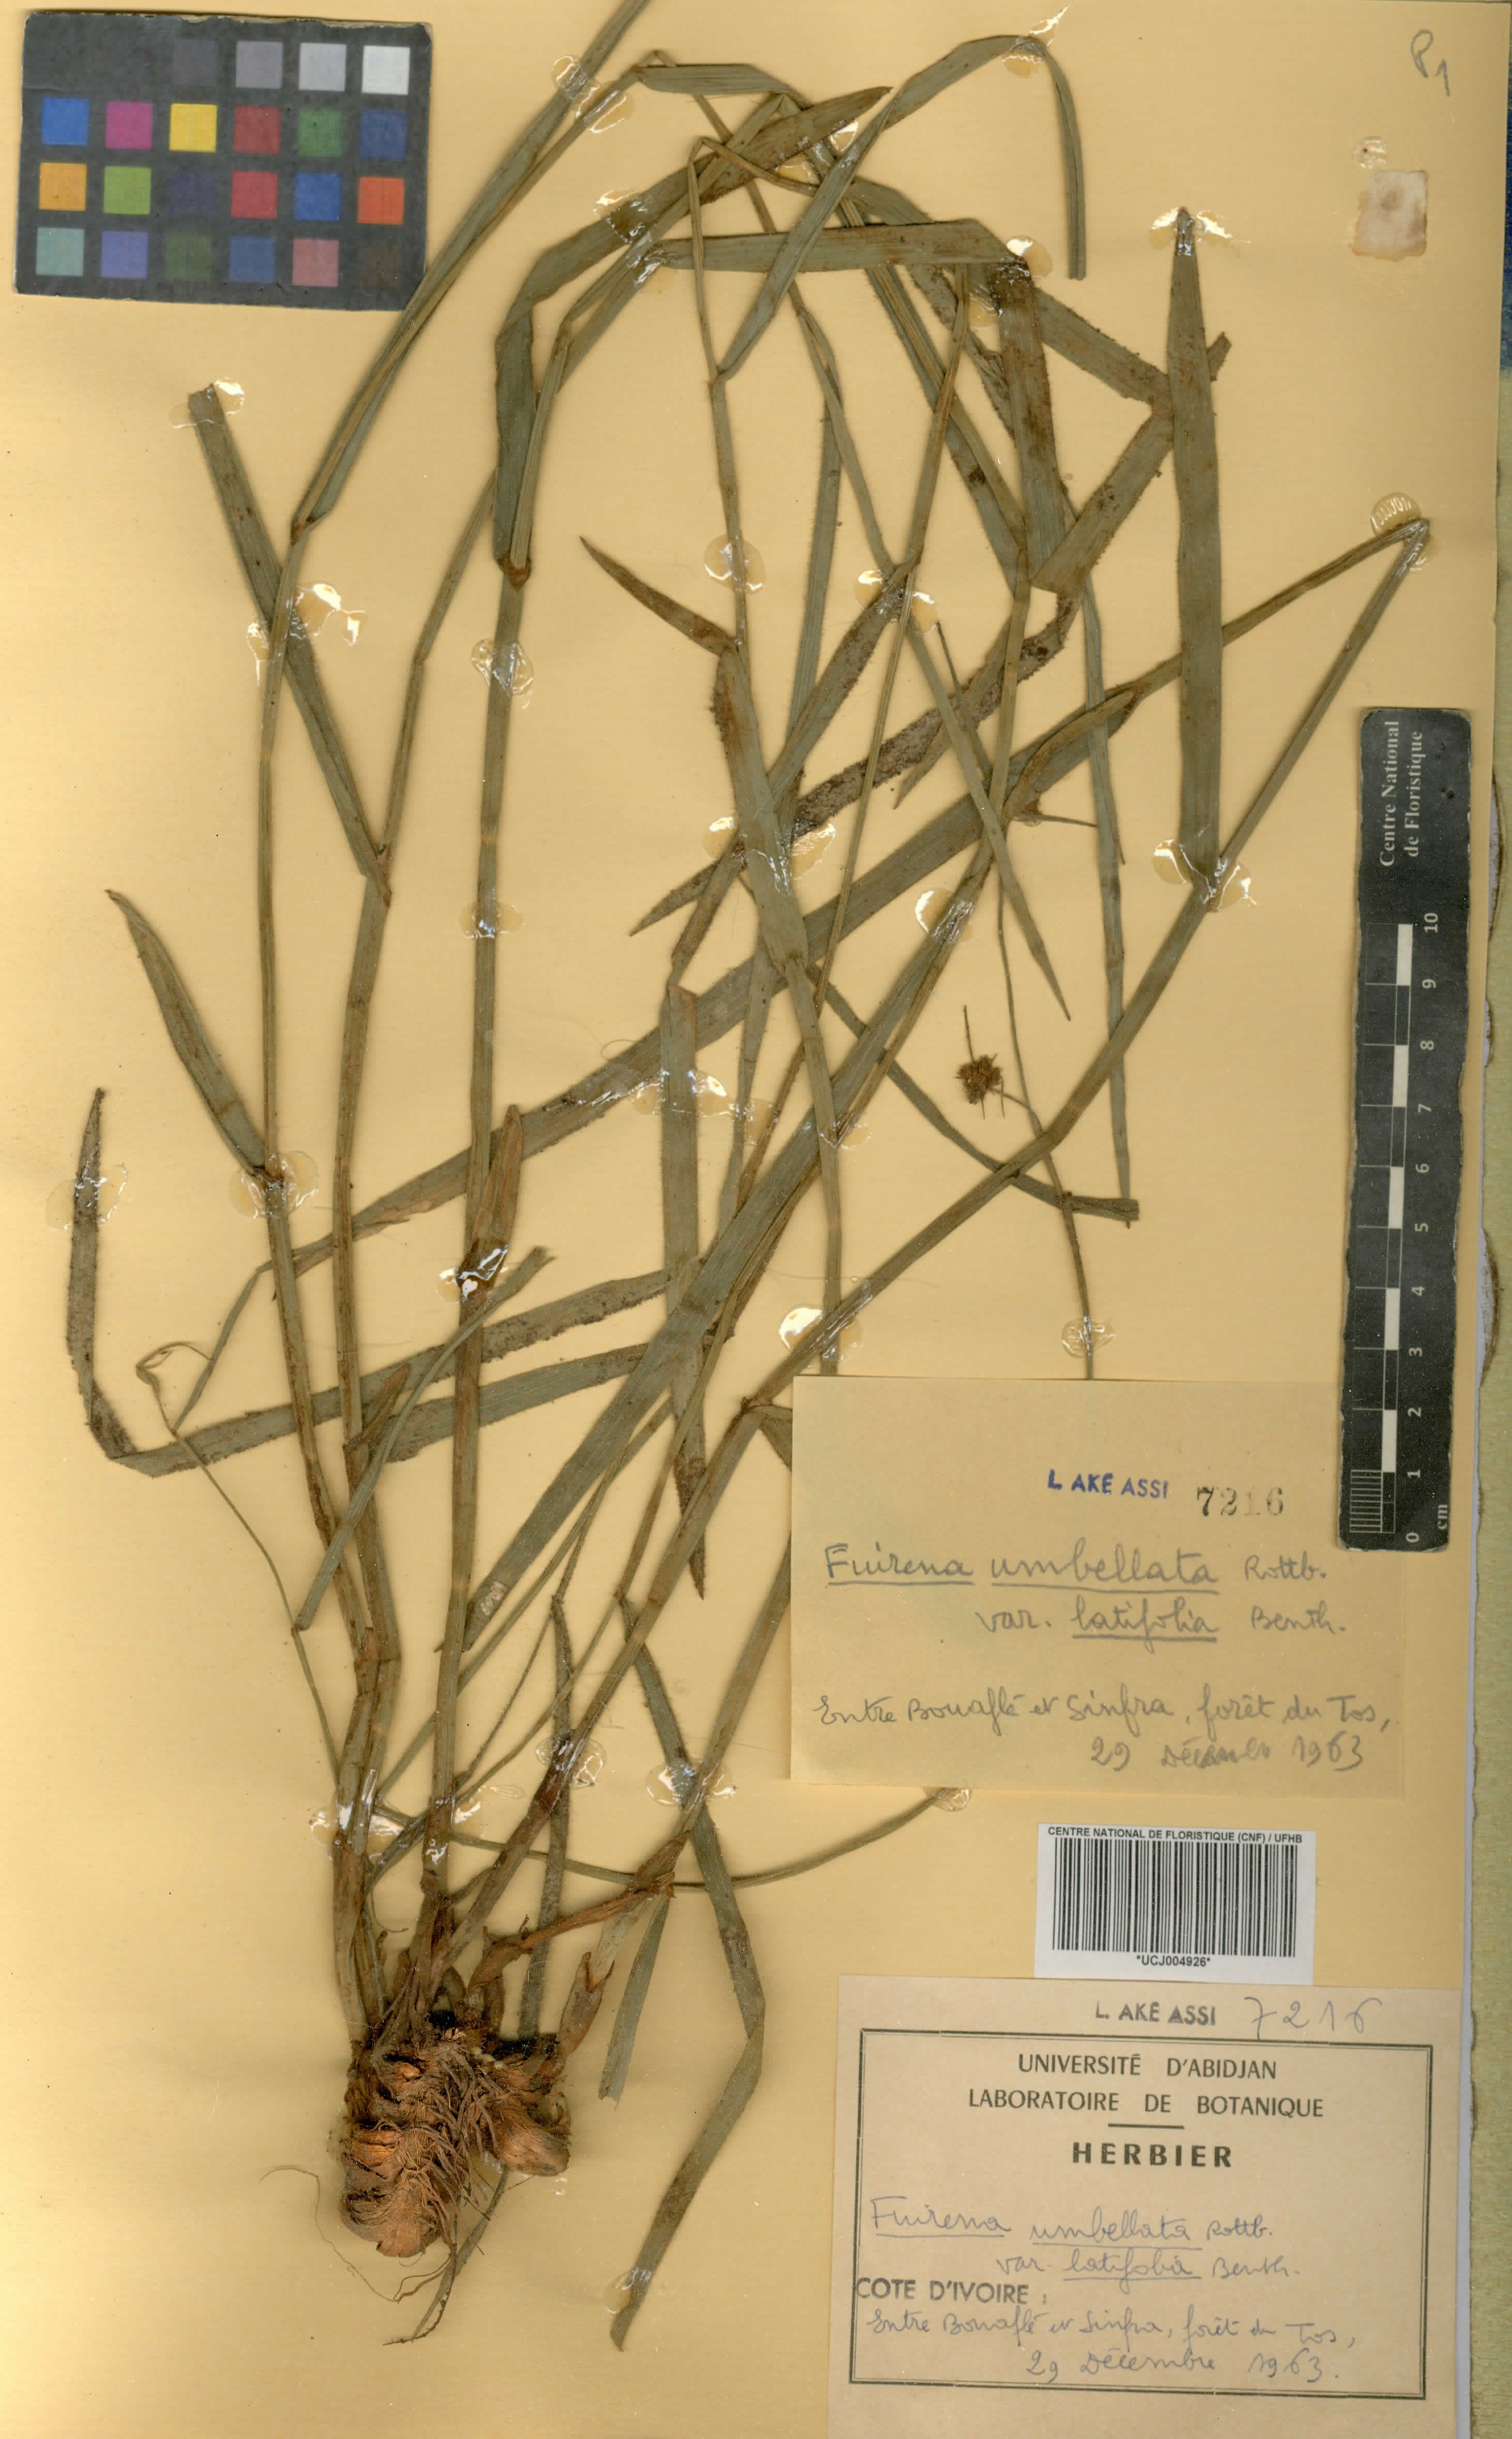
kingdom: Plantae
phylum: Tracheophyta
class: Liliopsida
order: Poales
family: Cyperaceae
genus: Fuirena
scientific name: Fuirena umbellata
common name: Yefen
